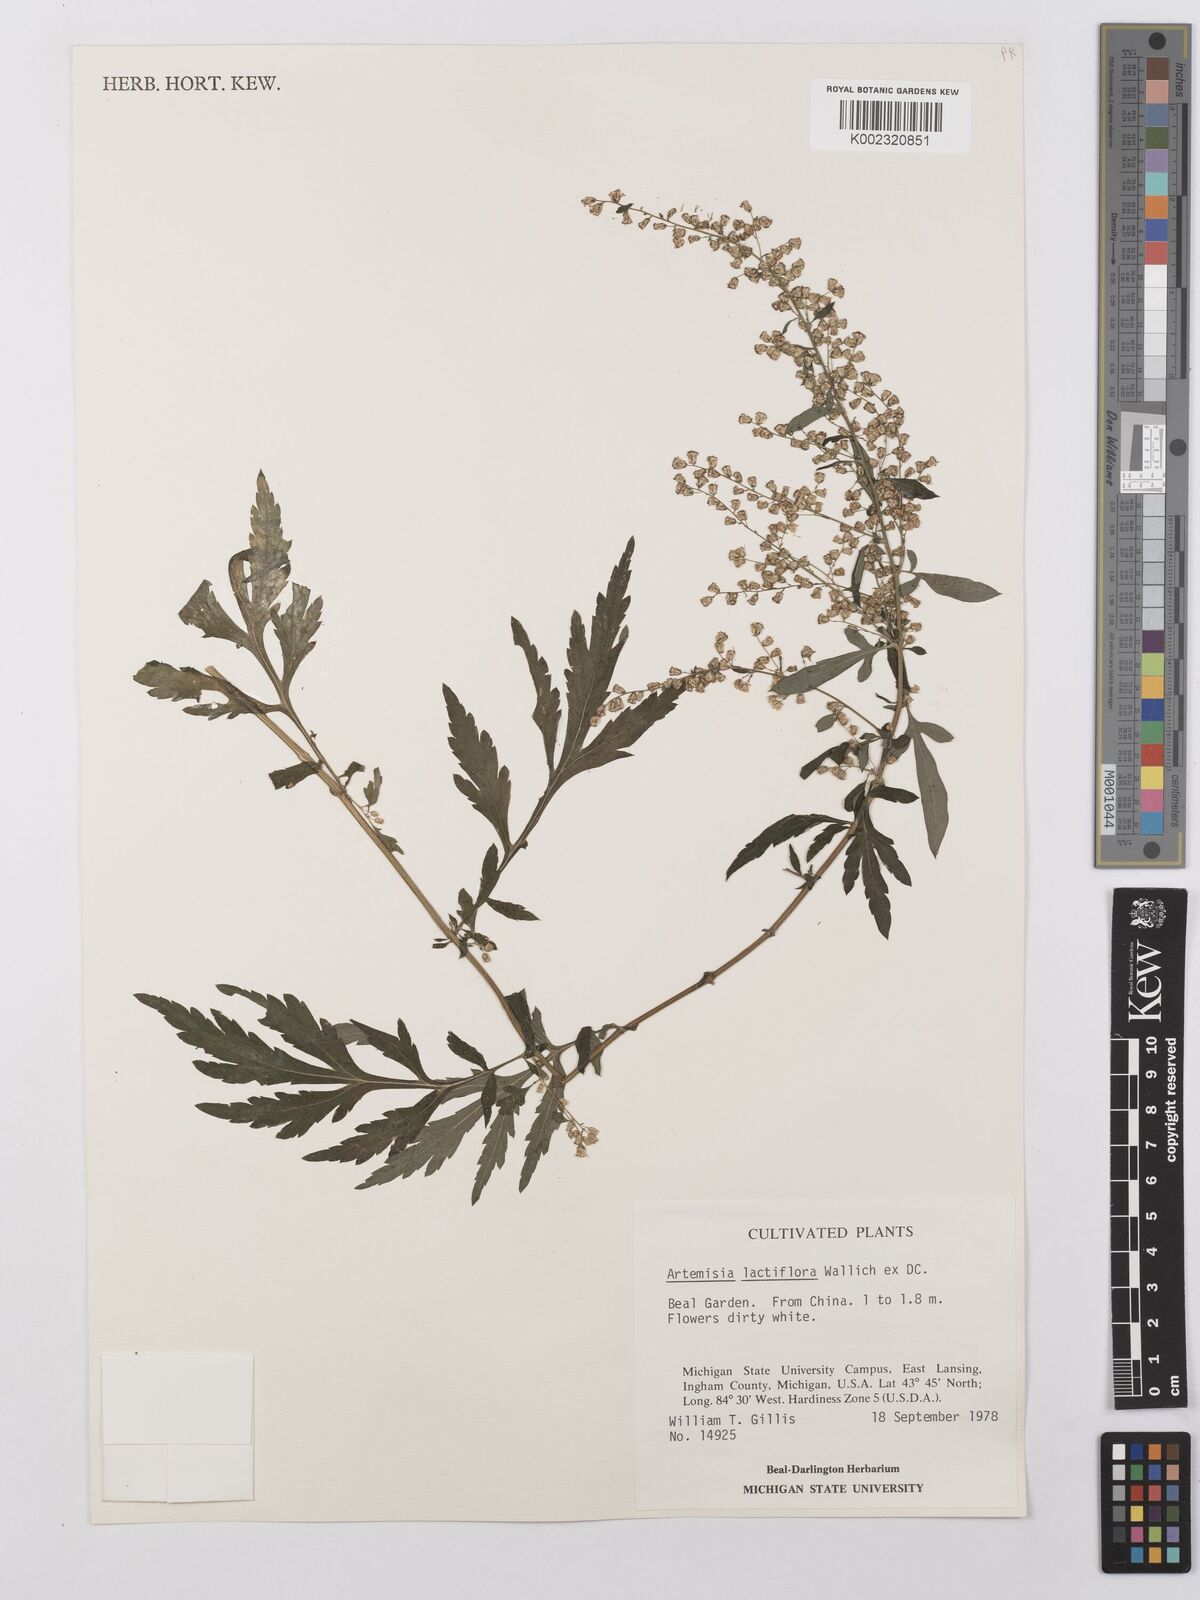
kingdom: Plantae
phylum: Tracheophyta
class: Magnoliopsida
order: Asterales
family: Asteraceae
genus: Artemisia
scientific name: Artemisia lactiflora
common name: White mugwort
